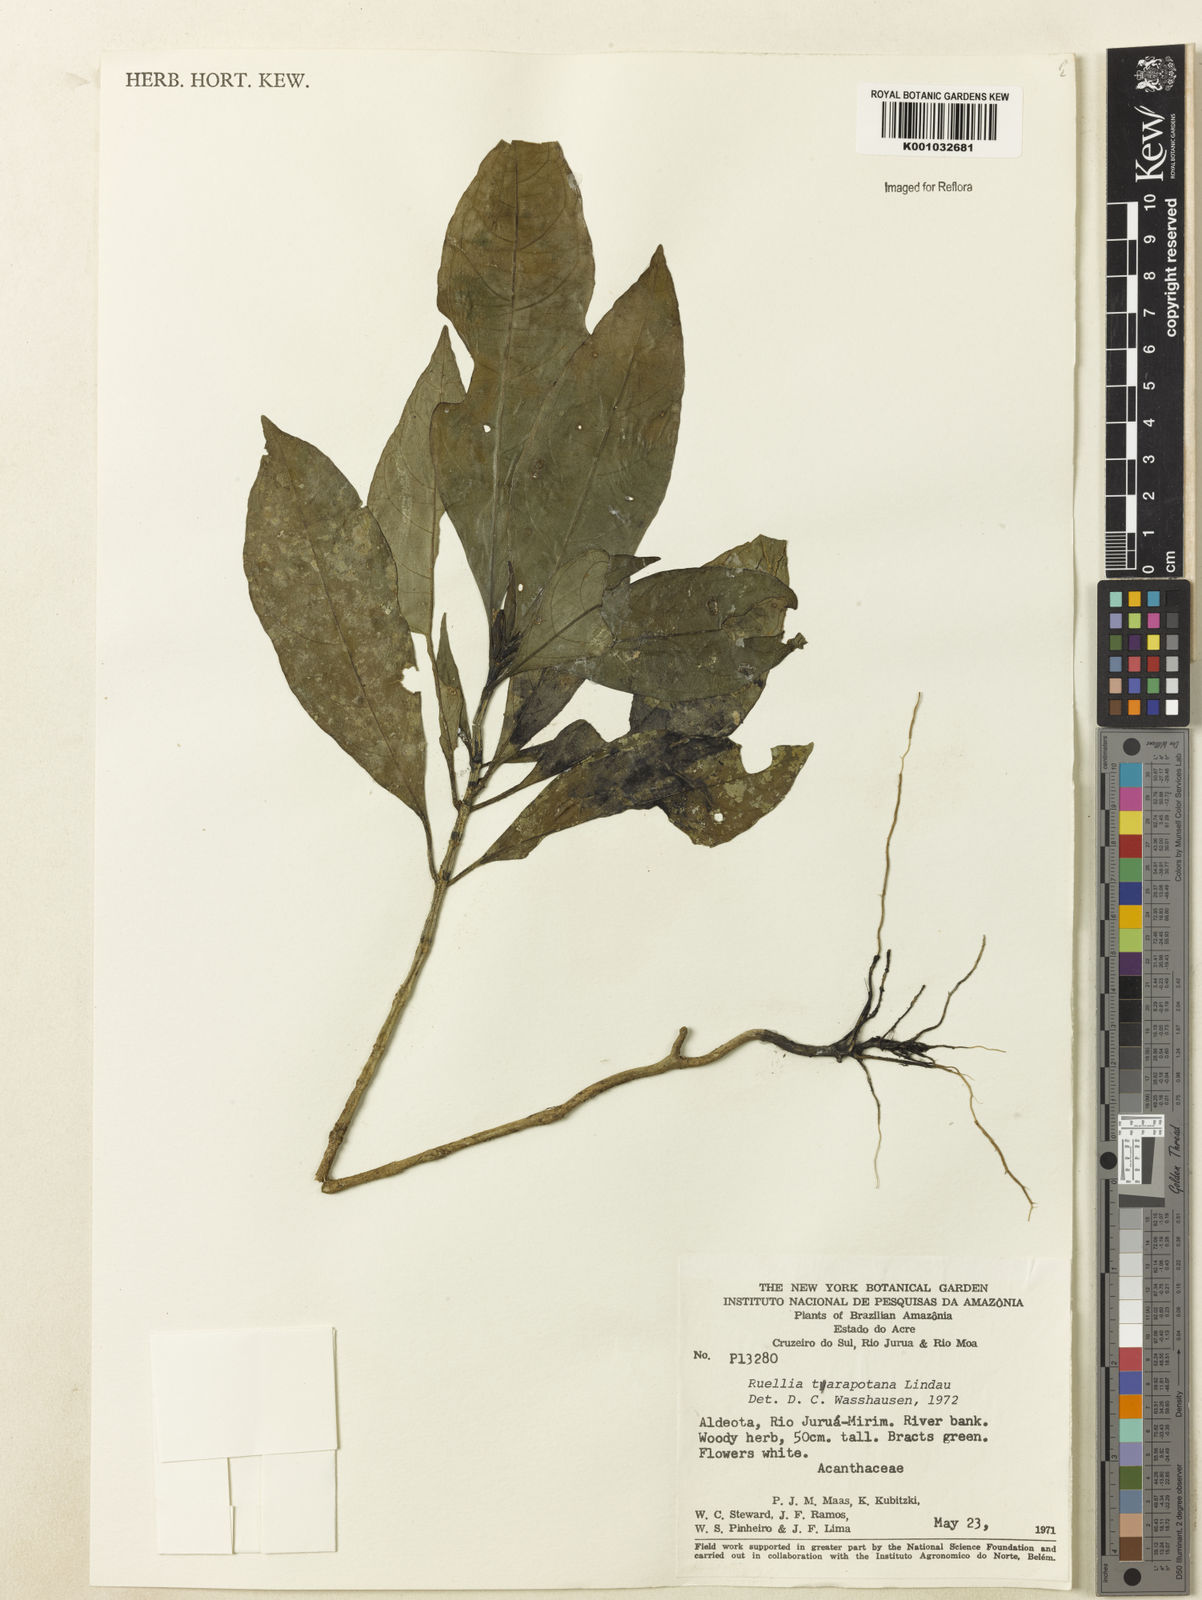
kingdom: Plantae
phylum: Tracheophyta
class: Magnoliopsida
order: Lamiales
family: Acanthaceae
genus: Ruellia
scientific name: Ruellia tarapotana
